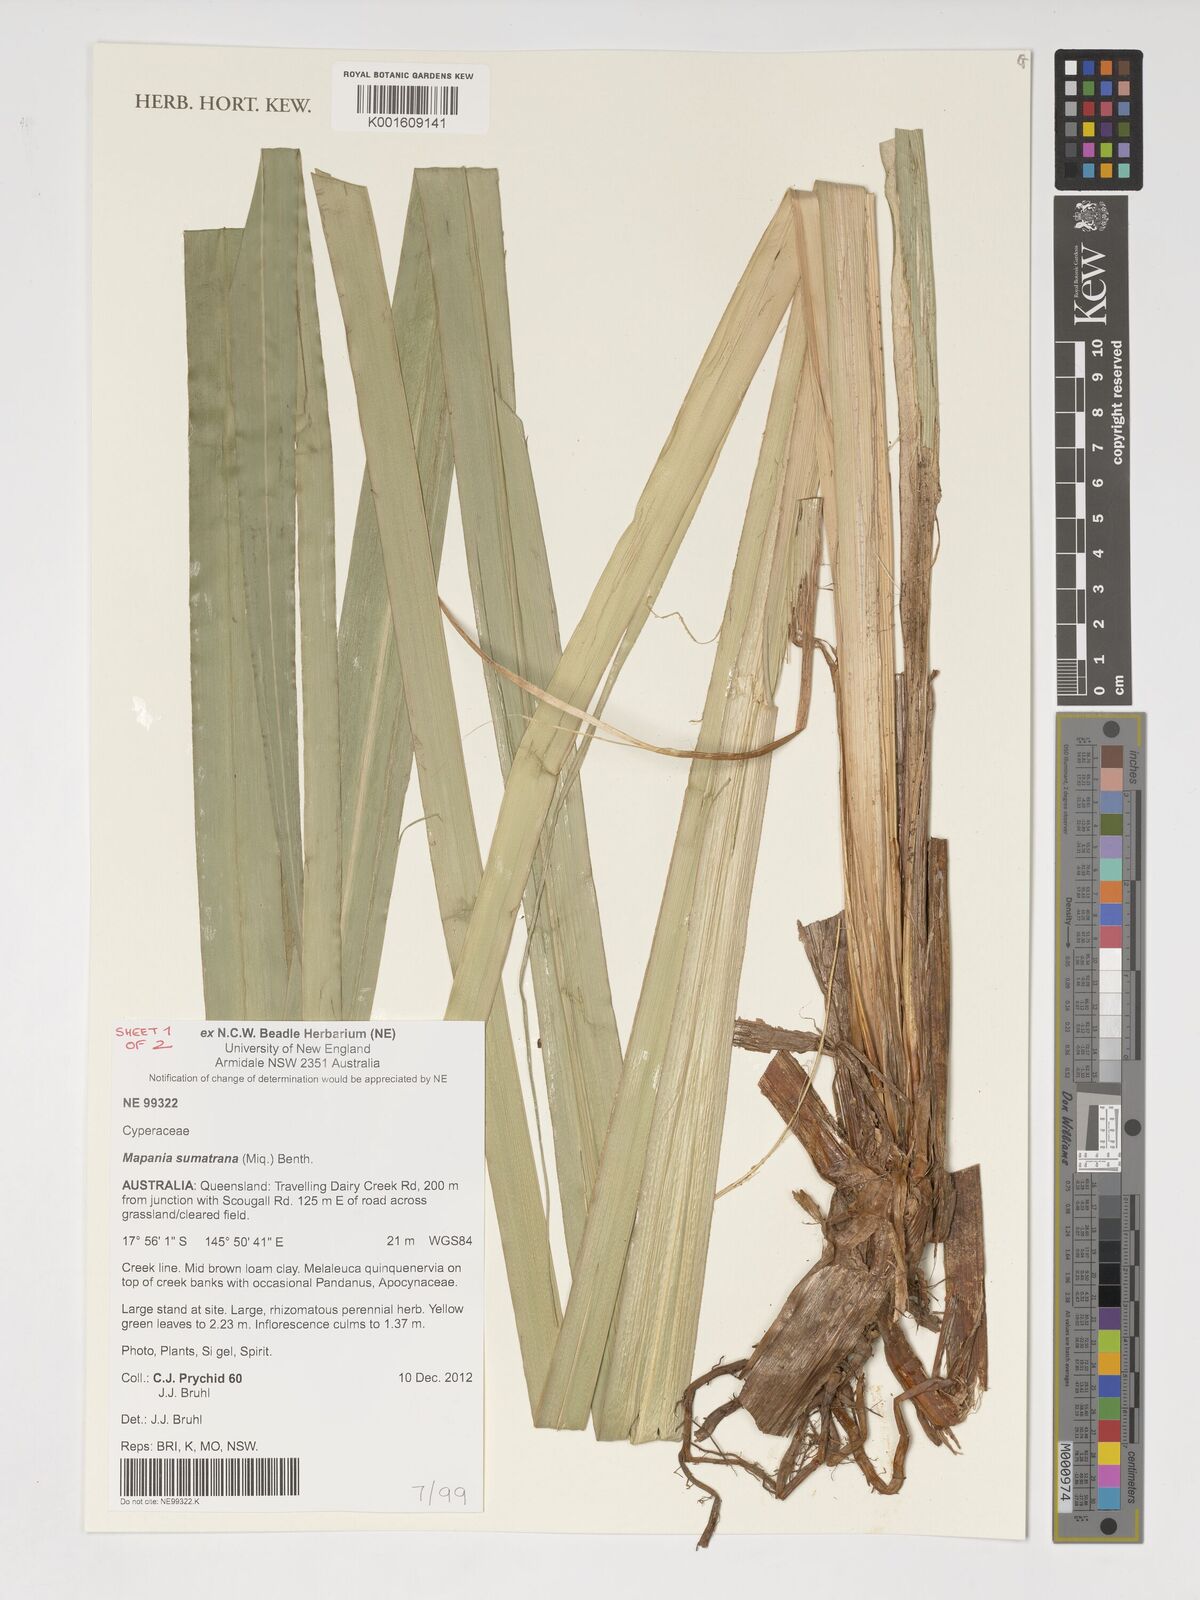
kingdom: Plantae
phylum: Tracheophyta
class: Liliopsida
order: Poales
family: Cyperaceae
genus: Mapania
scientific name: Mapania sumatrana
